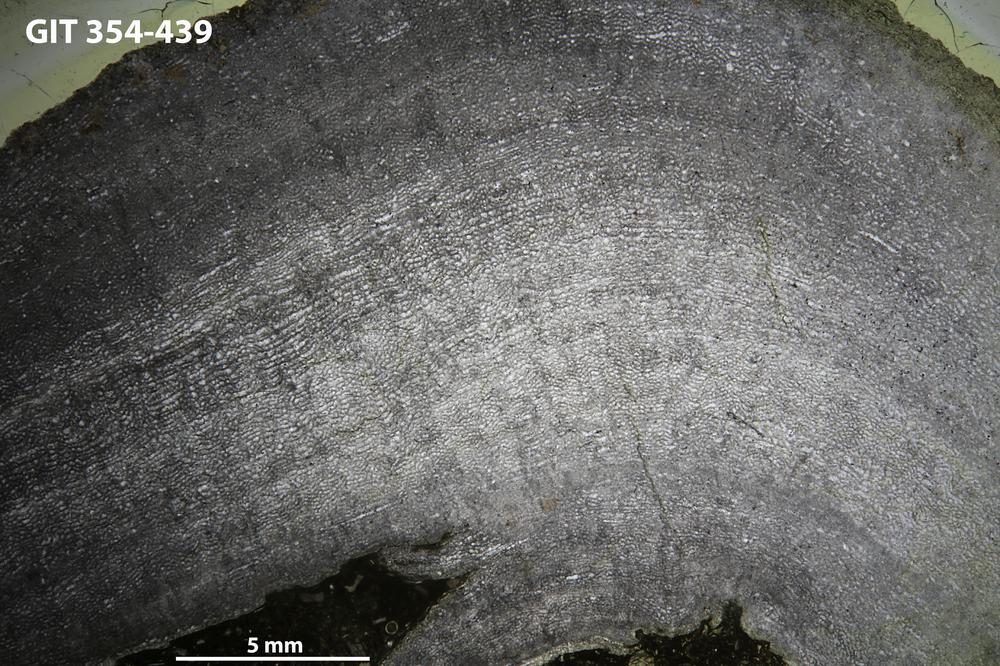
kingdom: Animalia
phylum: Porifera
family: Gerronostromatidae
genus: Petridiostroma
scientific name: Petridiostroma Stromatopora regularis
